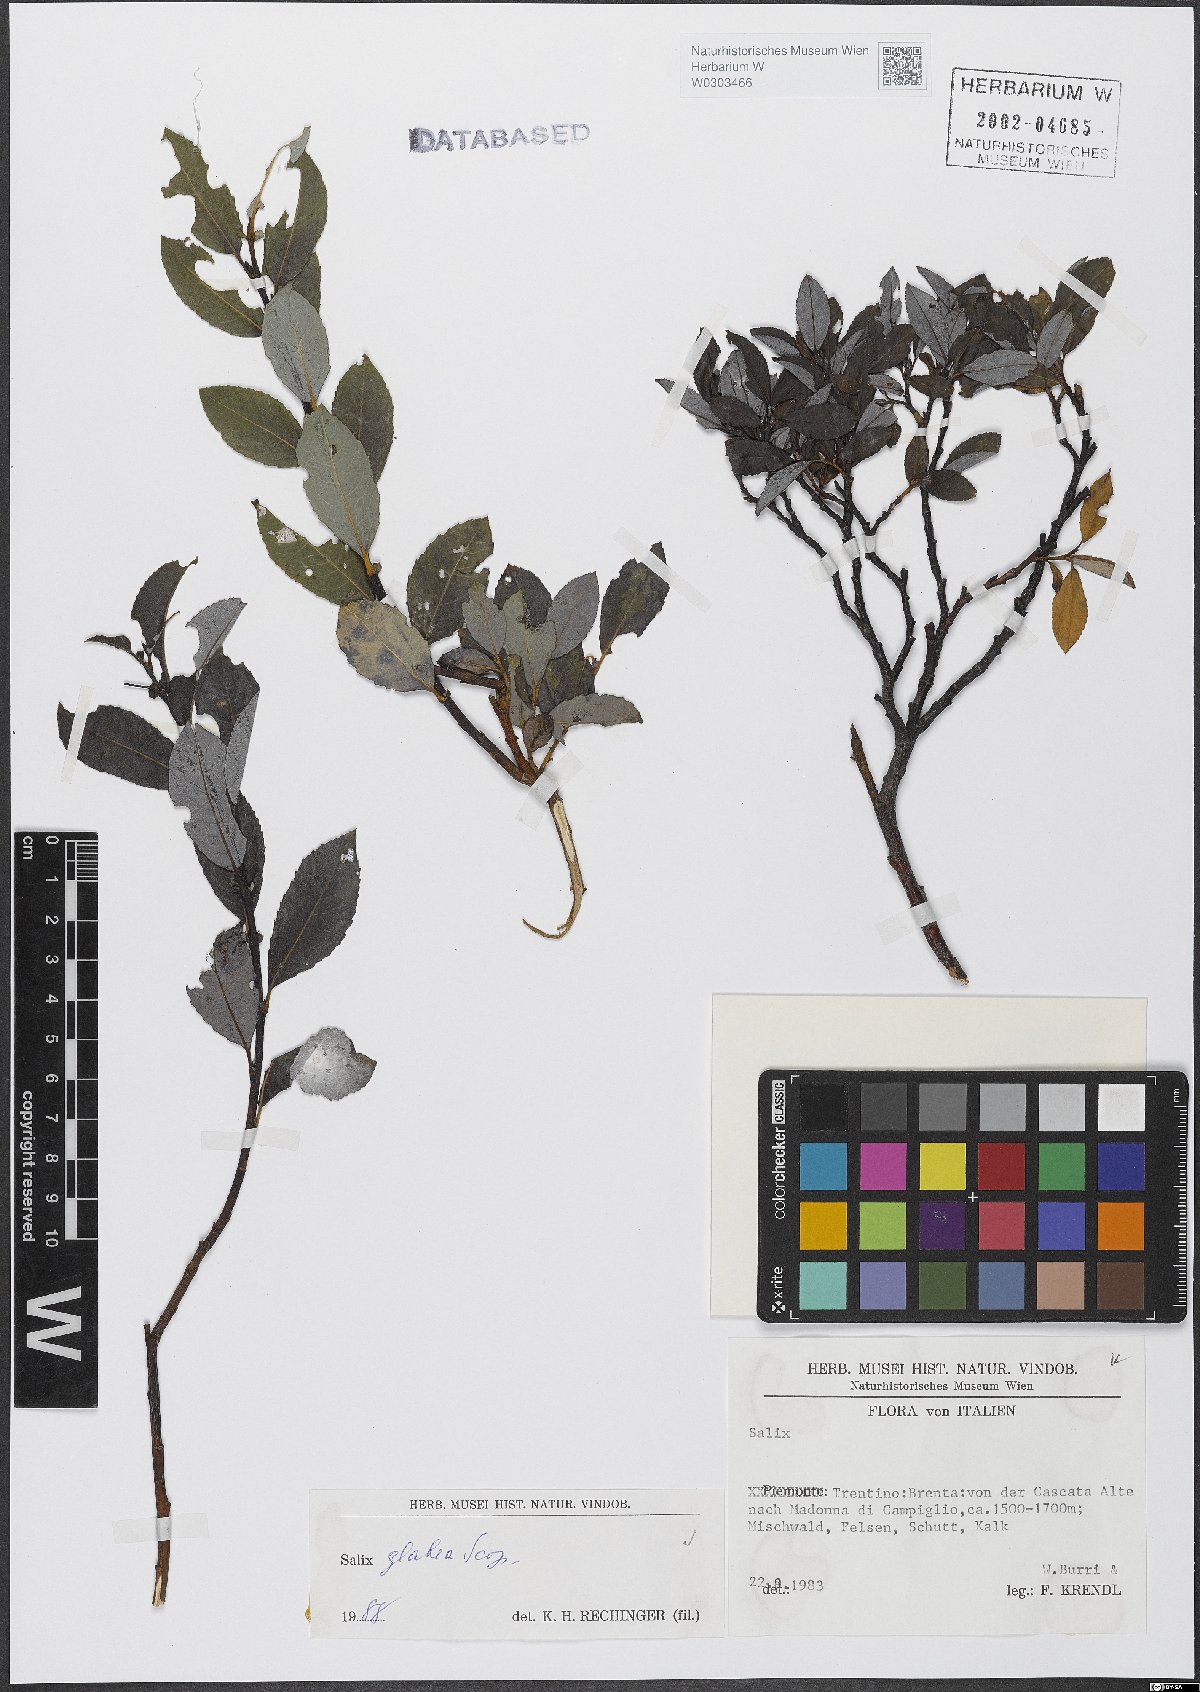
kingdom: Plantae
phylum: Tracheophyta
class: Magnoliopsida
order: Malpighiales
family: Salicaceae
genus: Salix
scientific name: Salix glabra
